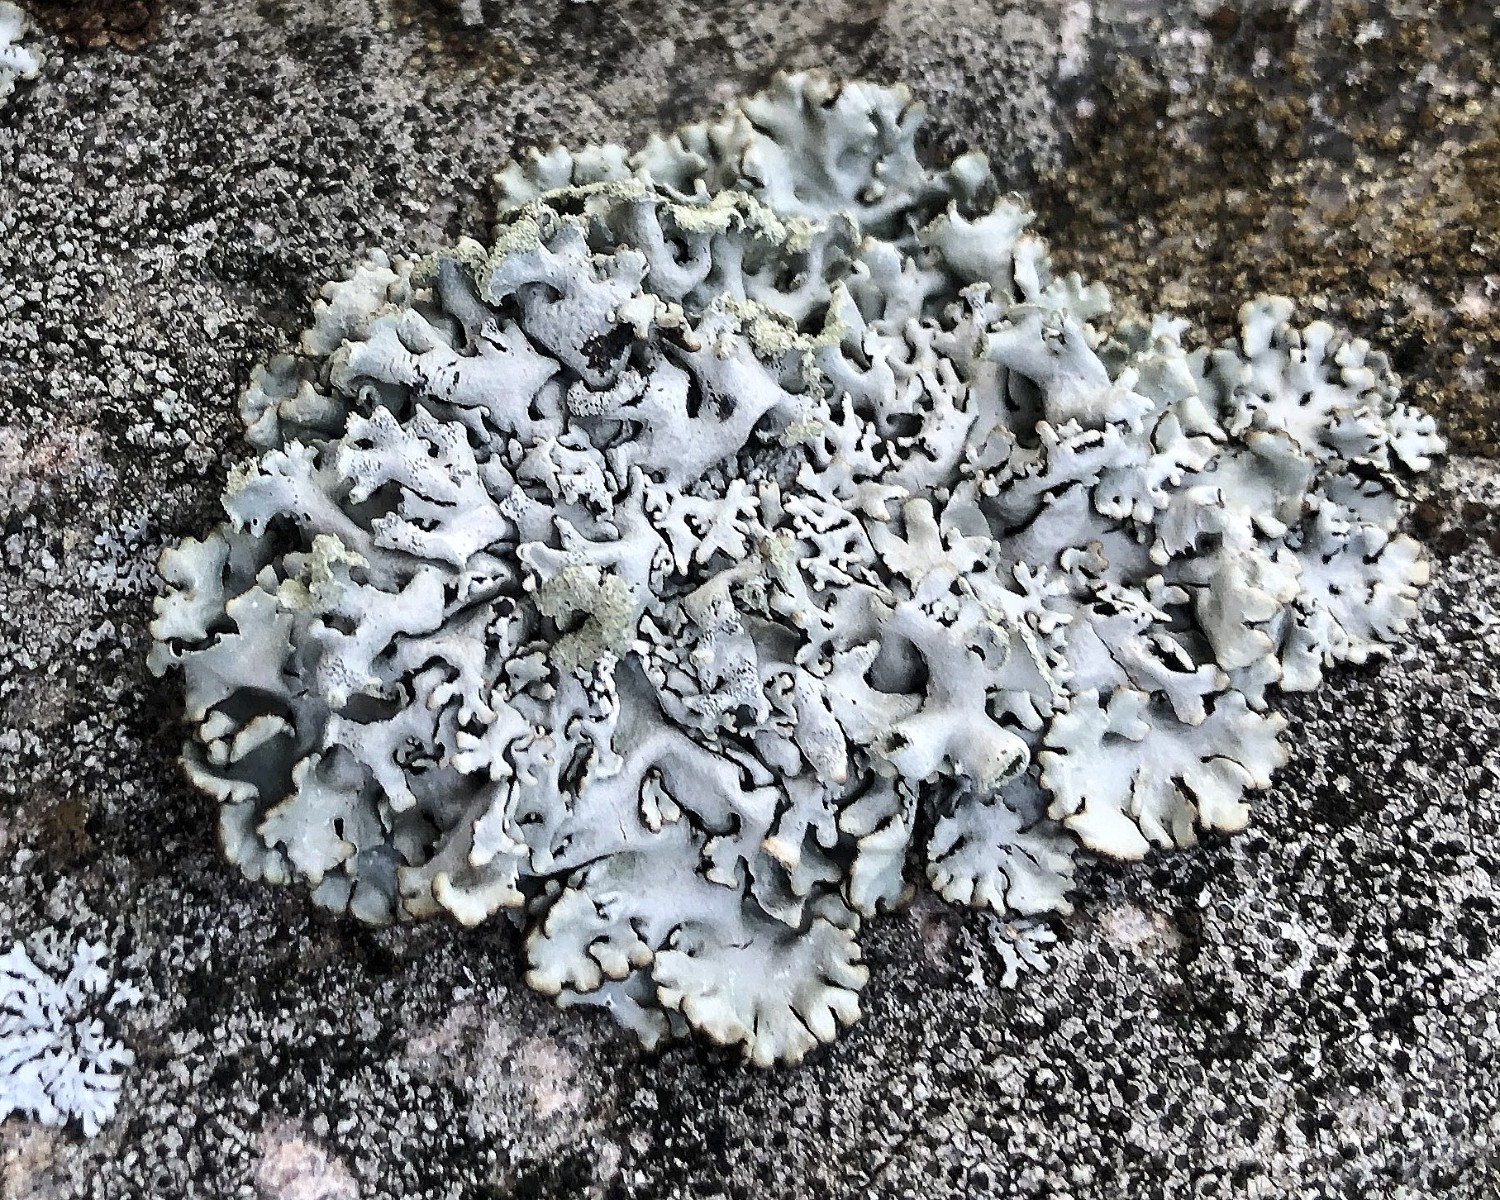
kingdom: Fungi
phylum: Ascomycota
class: Lecanoromycetes
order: Lecanorales
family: Parmeliaceae
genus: Hypogymnia
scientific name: Hypogymnia physodes
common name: almindelig kvistlav
